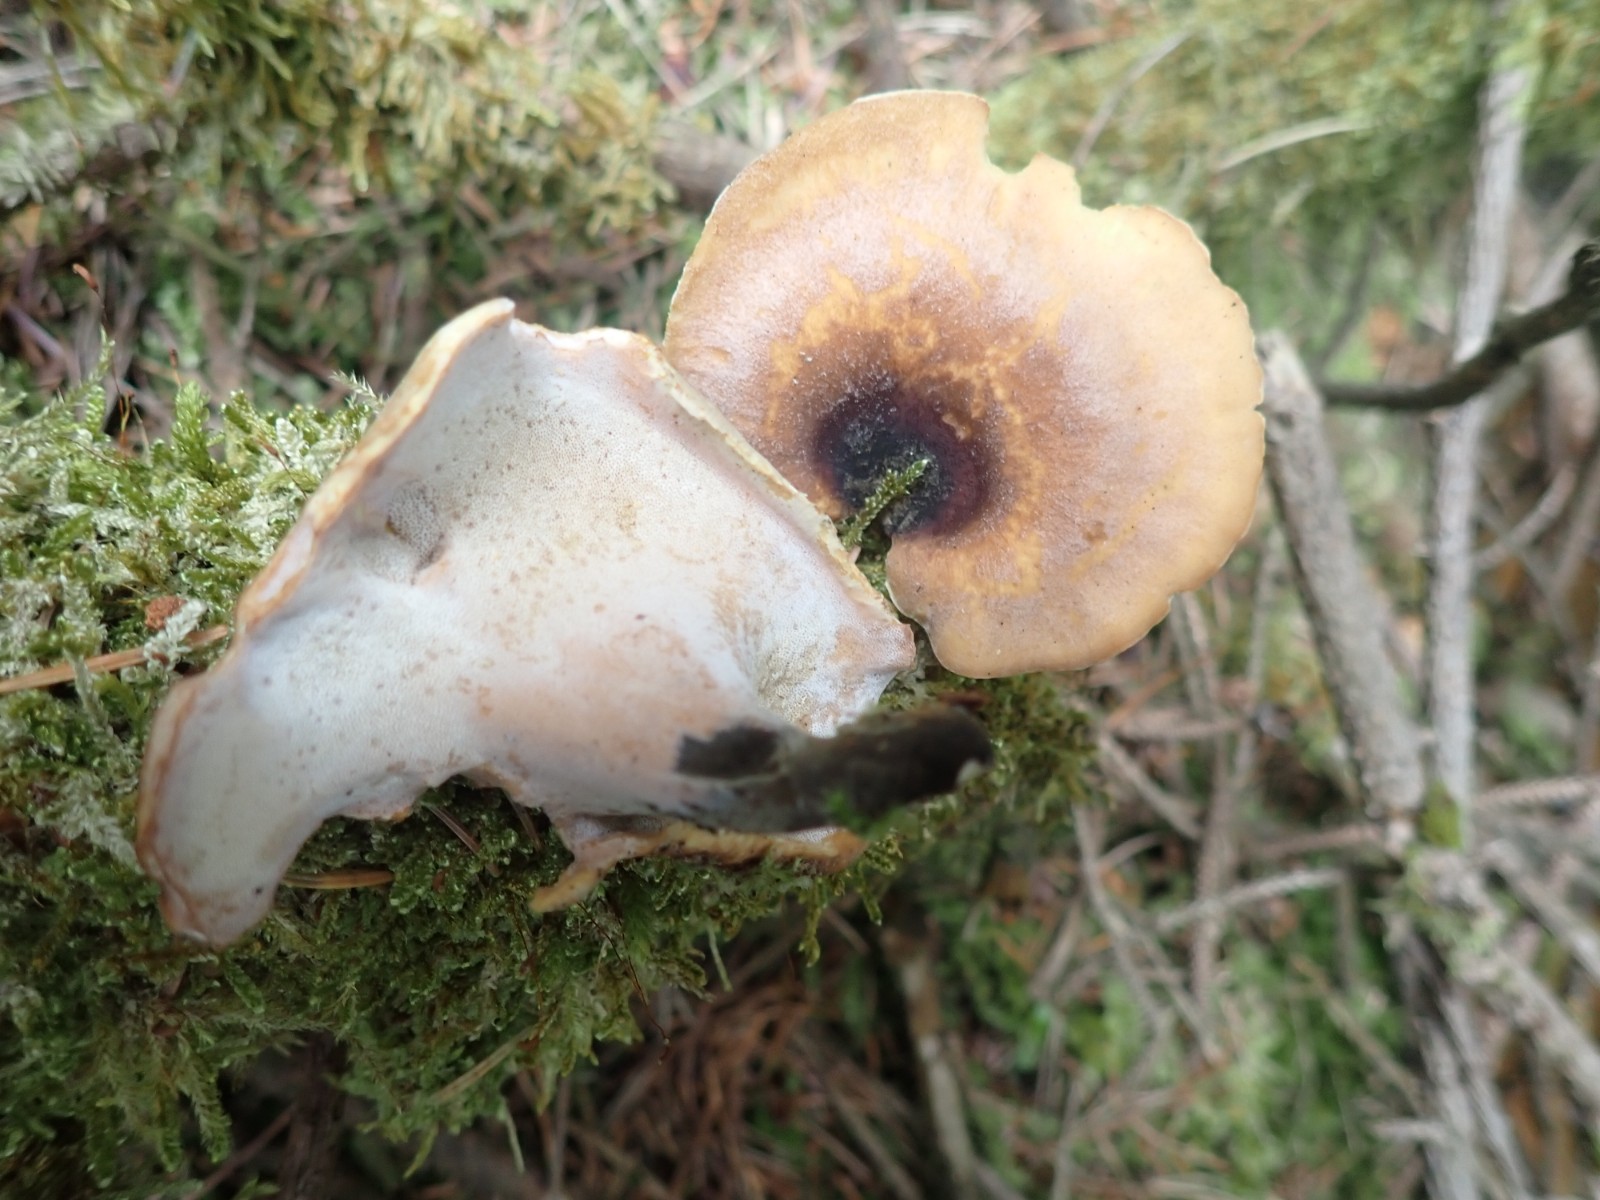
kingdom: Fungi
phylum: Basidiomycota
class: Agaricomycetes
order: Polyporales
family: Polyporaceae
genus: Picipes
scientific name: Picipes tubaeformis
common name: trompet-stilkporesvamp
